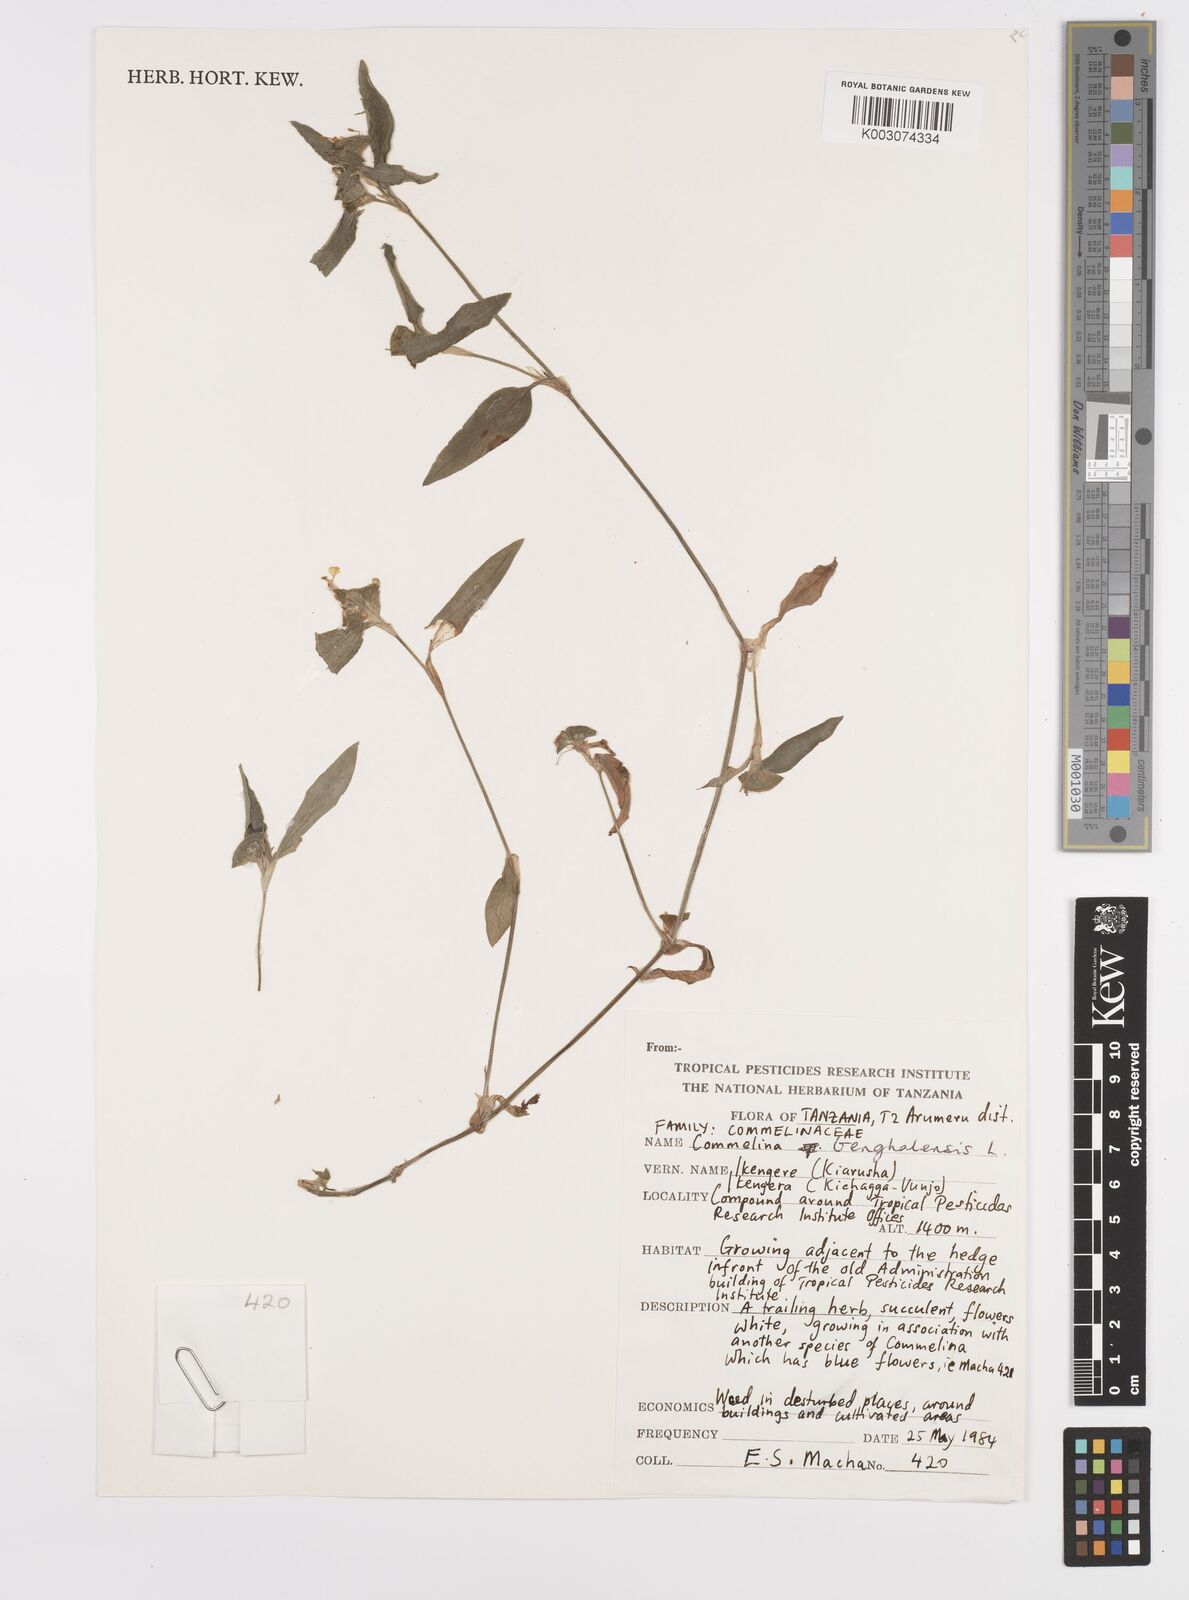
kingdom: Plantae
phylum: Tracheophyta
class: Liliopsida
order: Commelinales
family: Commelinaceae
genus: Commelina
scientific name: Commelina benghalensis
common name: Jio
